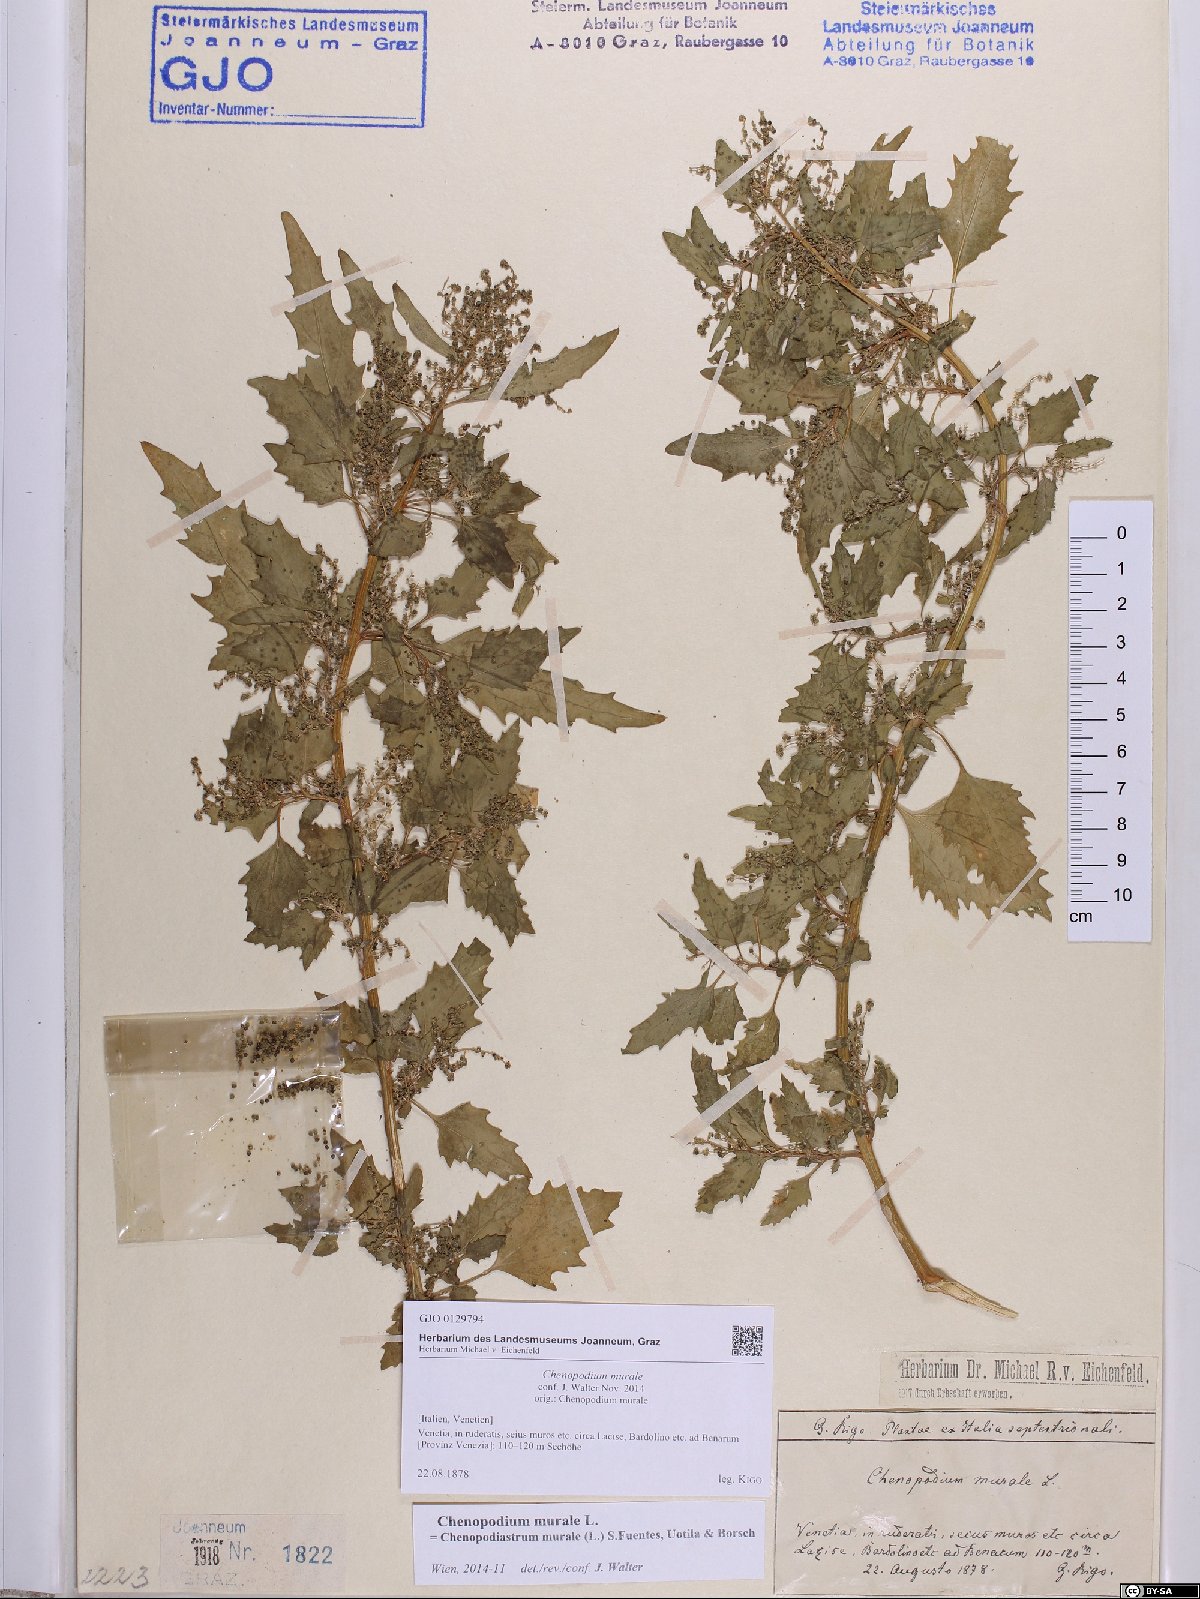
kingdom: Plantae
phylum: Tracheophyta
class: Magnoliopsida
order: Caryophyllales
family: Amaranthaceae
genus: Chenopodiastrum
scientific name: Chenopodiastrum murale
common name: Sowbane
